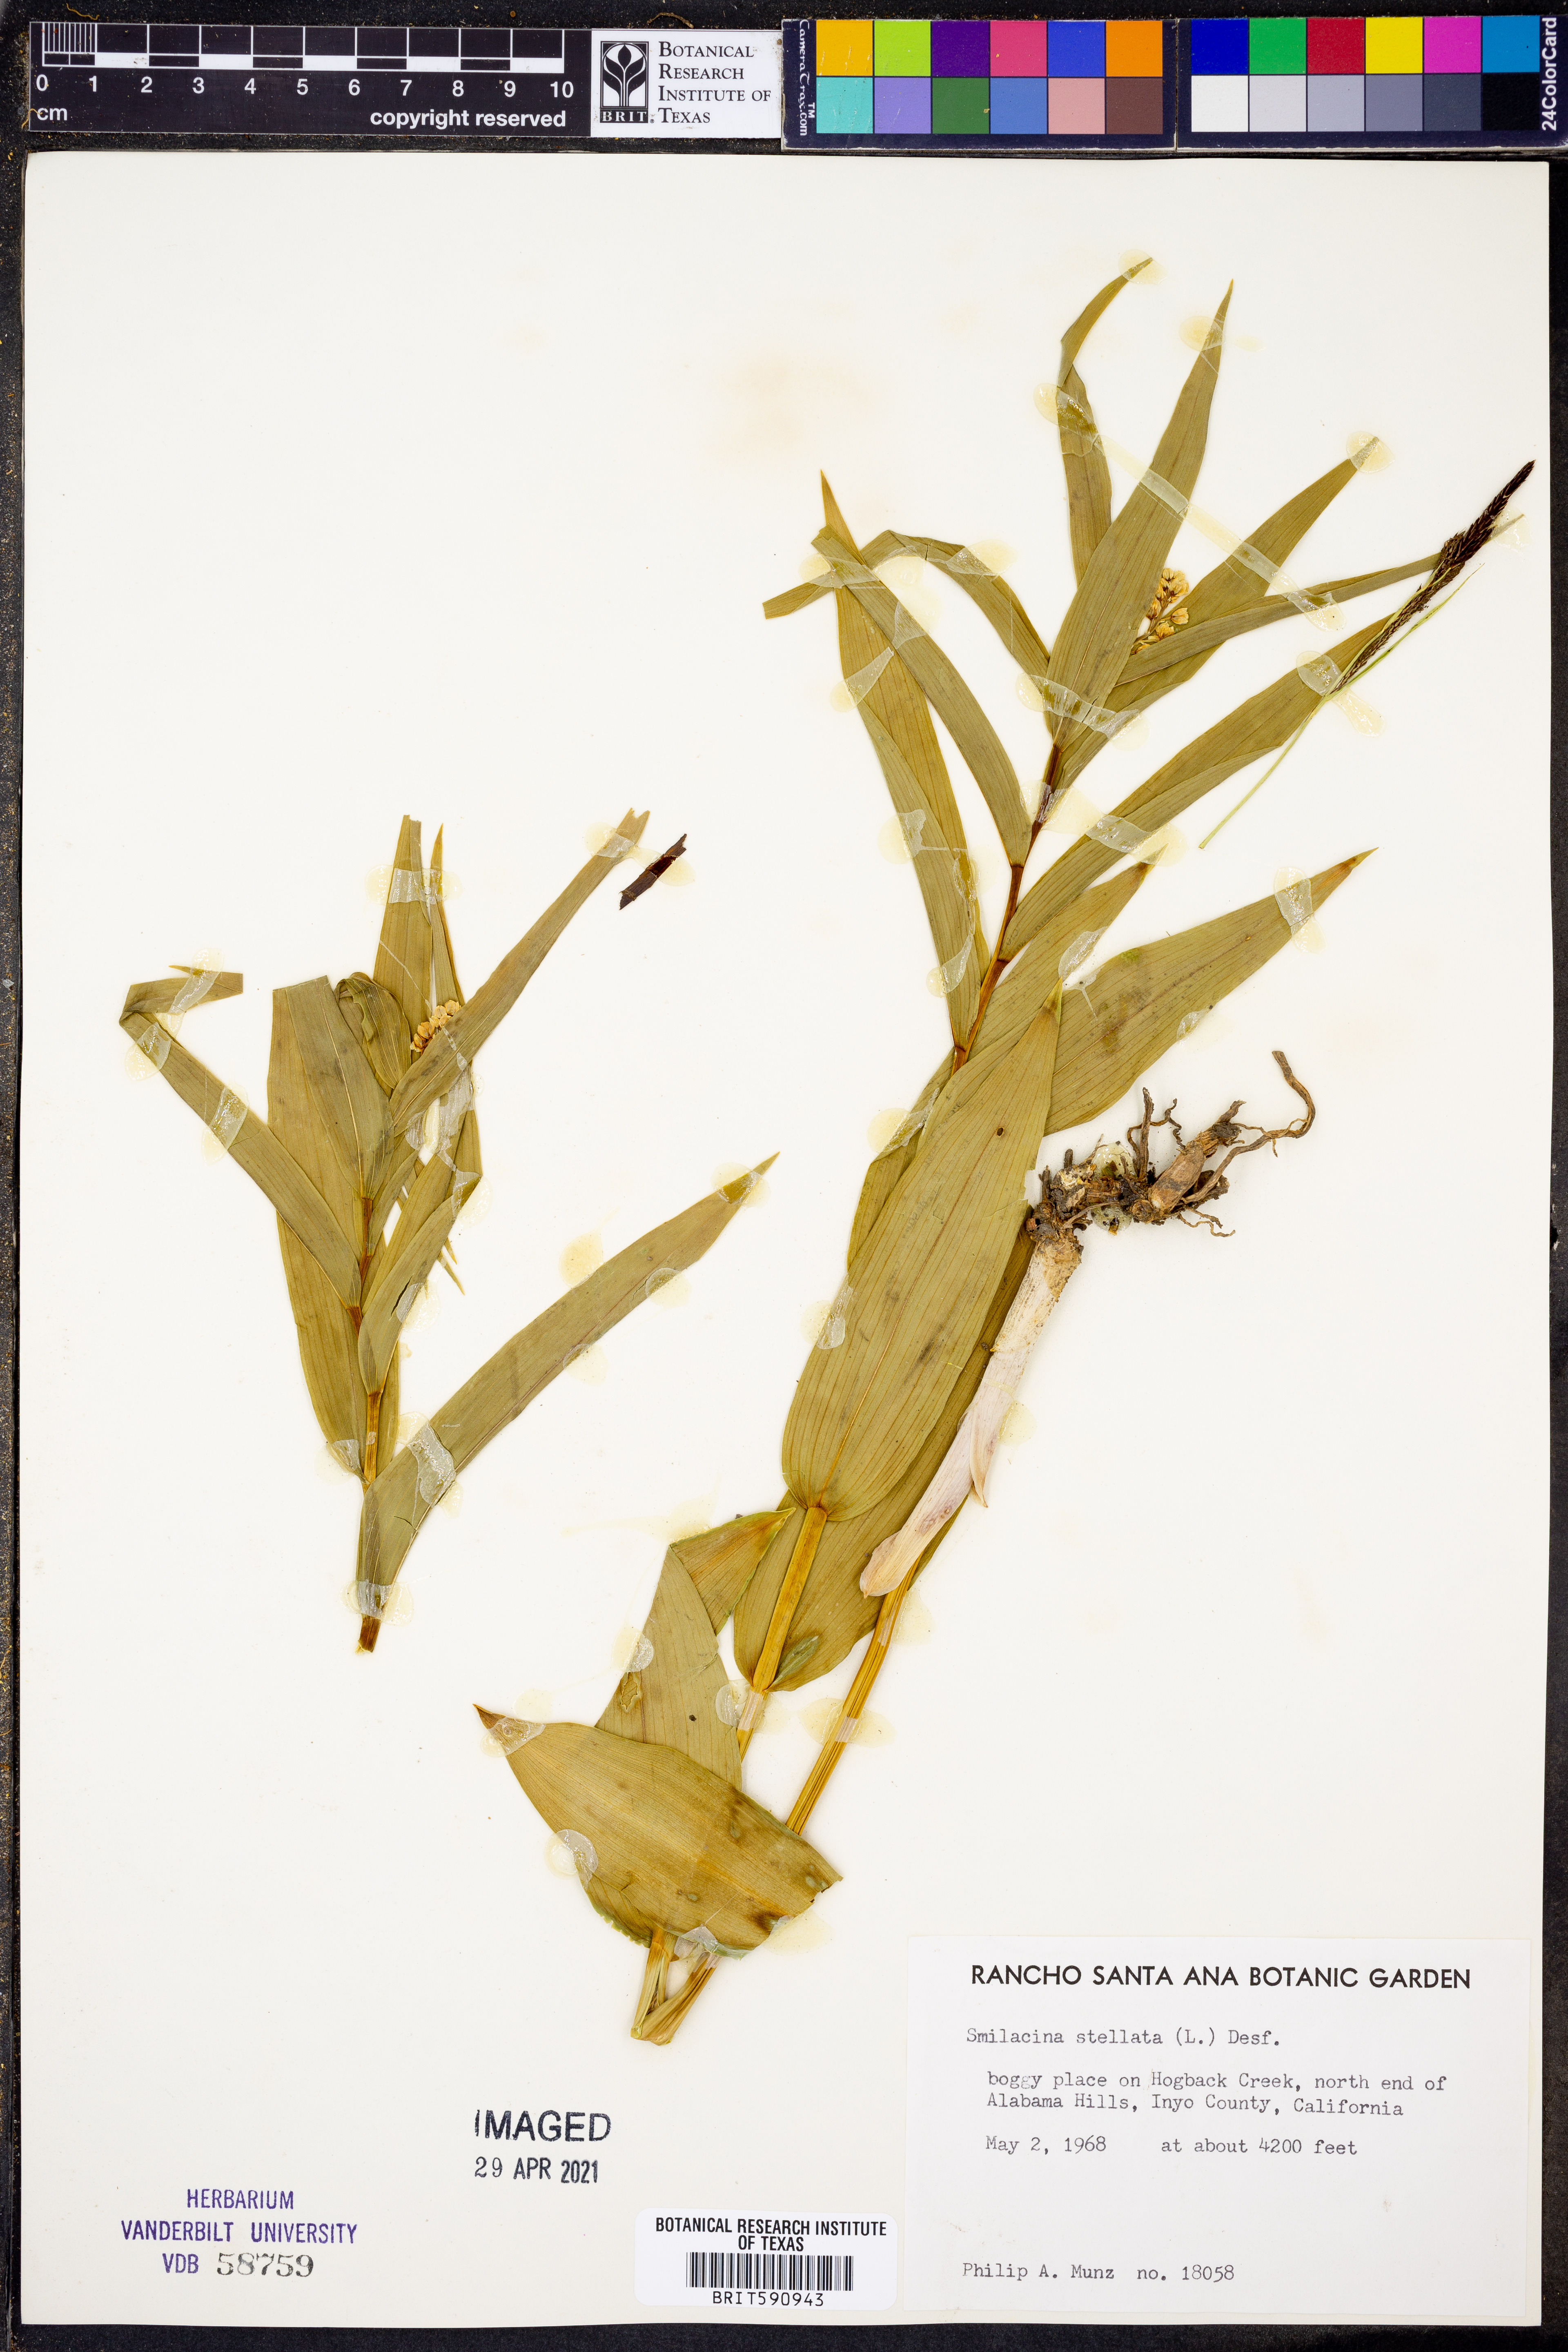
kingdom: Plantae
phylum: Tracheophyta
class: Liliopsida
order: Asparagales
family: Asparagaceae
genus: Maianthemum
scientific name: Maianthemum stellatum
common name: Little false solomon's seal
